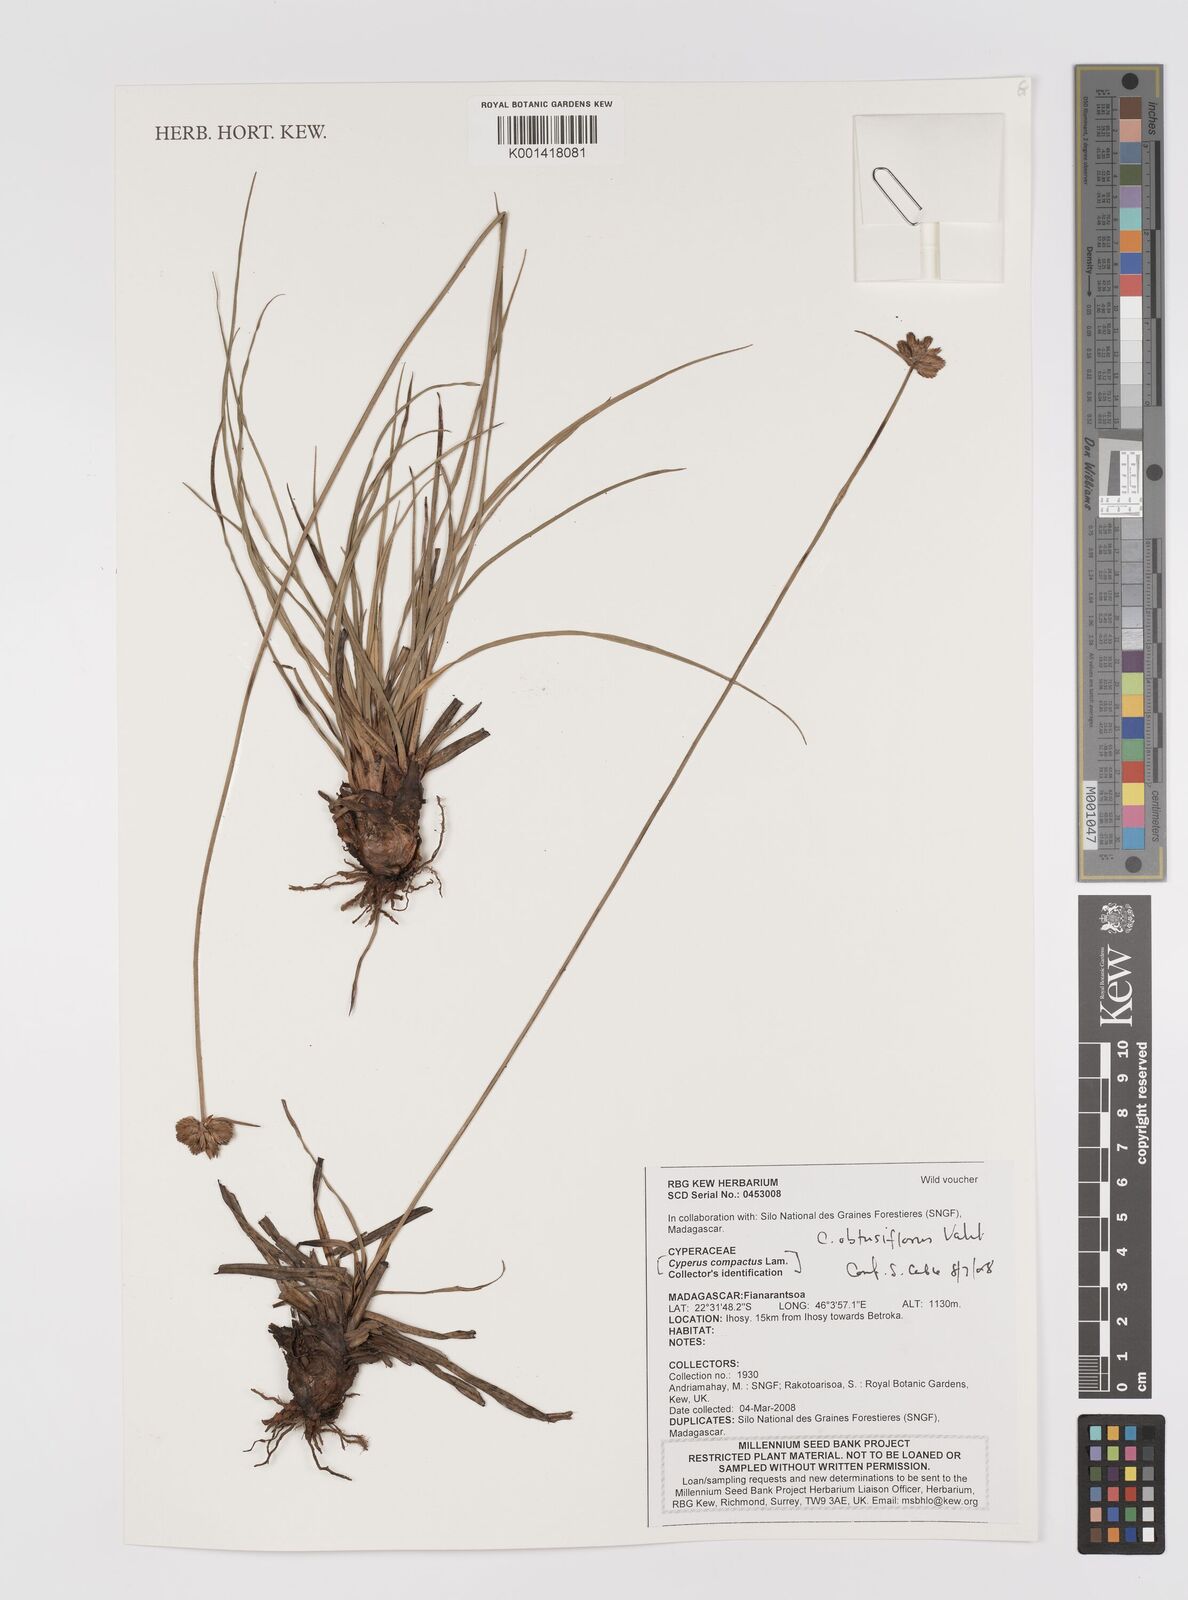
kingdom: Plantae
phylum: Tracheophyta
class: Liliopsida
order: Poales
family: Cyperaceae
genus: Cyperus
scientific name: Cyperus niveus
